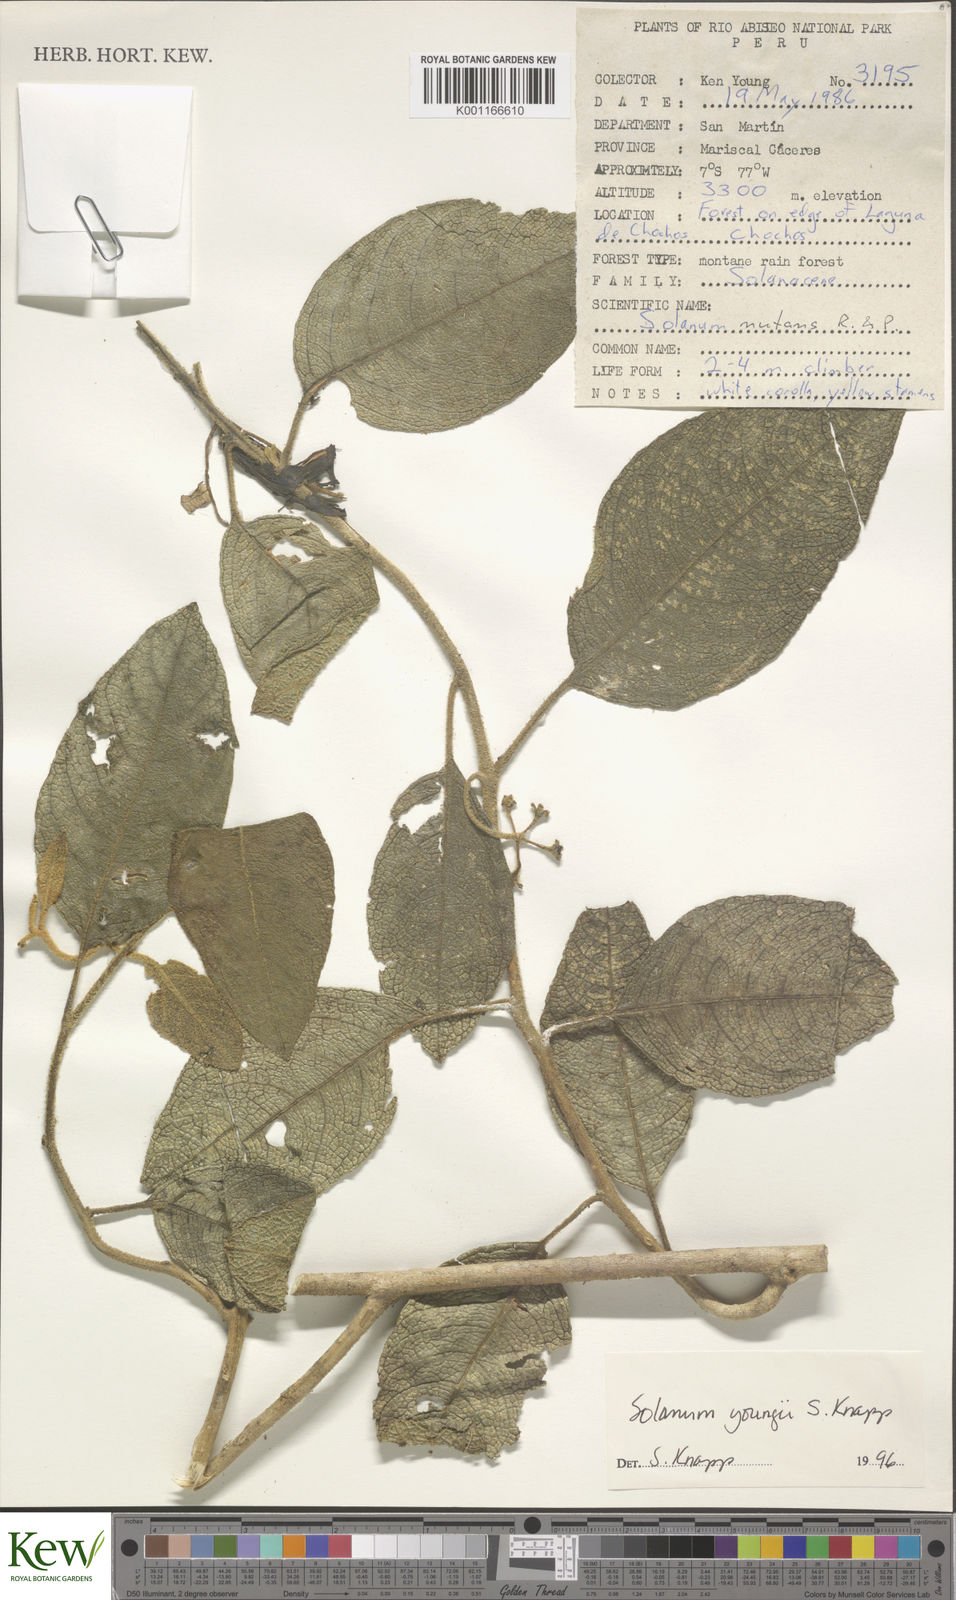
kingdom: Plantae
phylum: Tracheophyta
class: Magnoliopsida
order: Solanales
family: Solanaceae
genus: Solanum
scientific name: Solanum youngii
